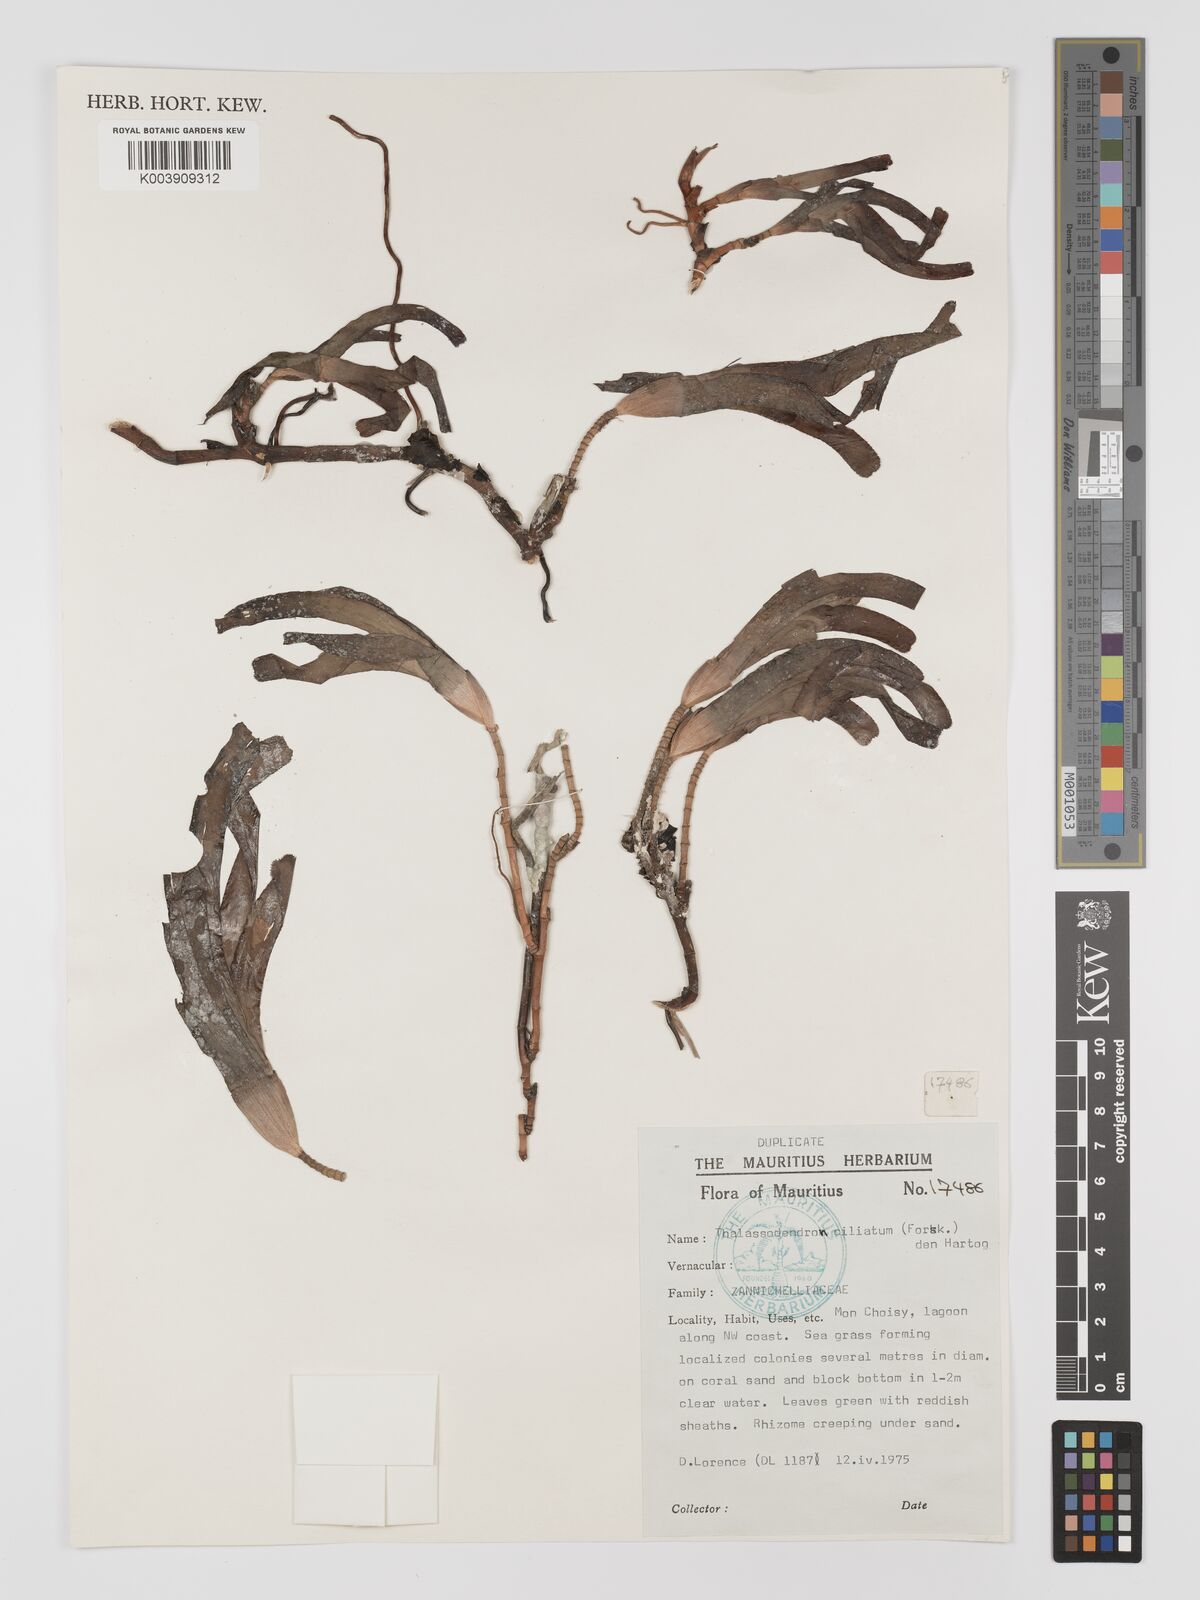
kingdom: Plantae
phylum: Tracheophyta
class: Liliopsida
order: Alismatales
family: Cymodoceaceae
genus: Thalassodendron
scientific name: Thalassodendron ciliatum
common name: Species code: tc
